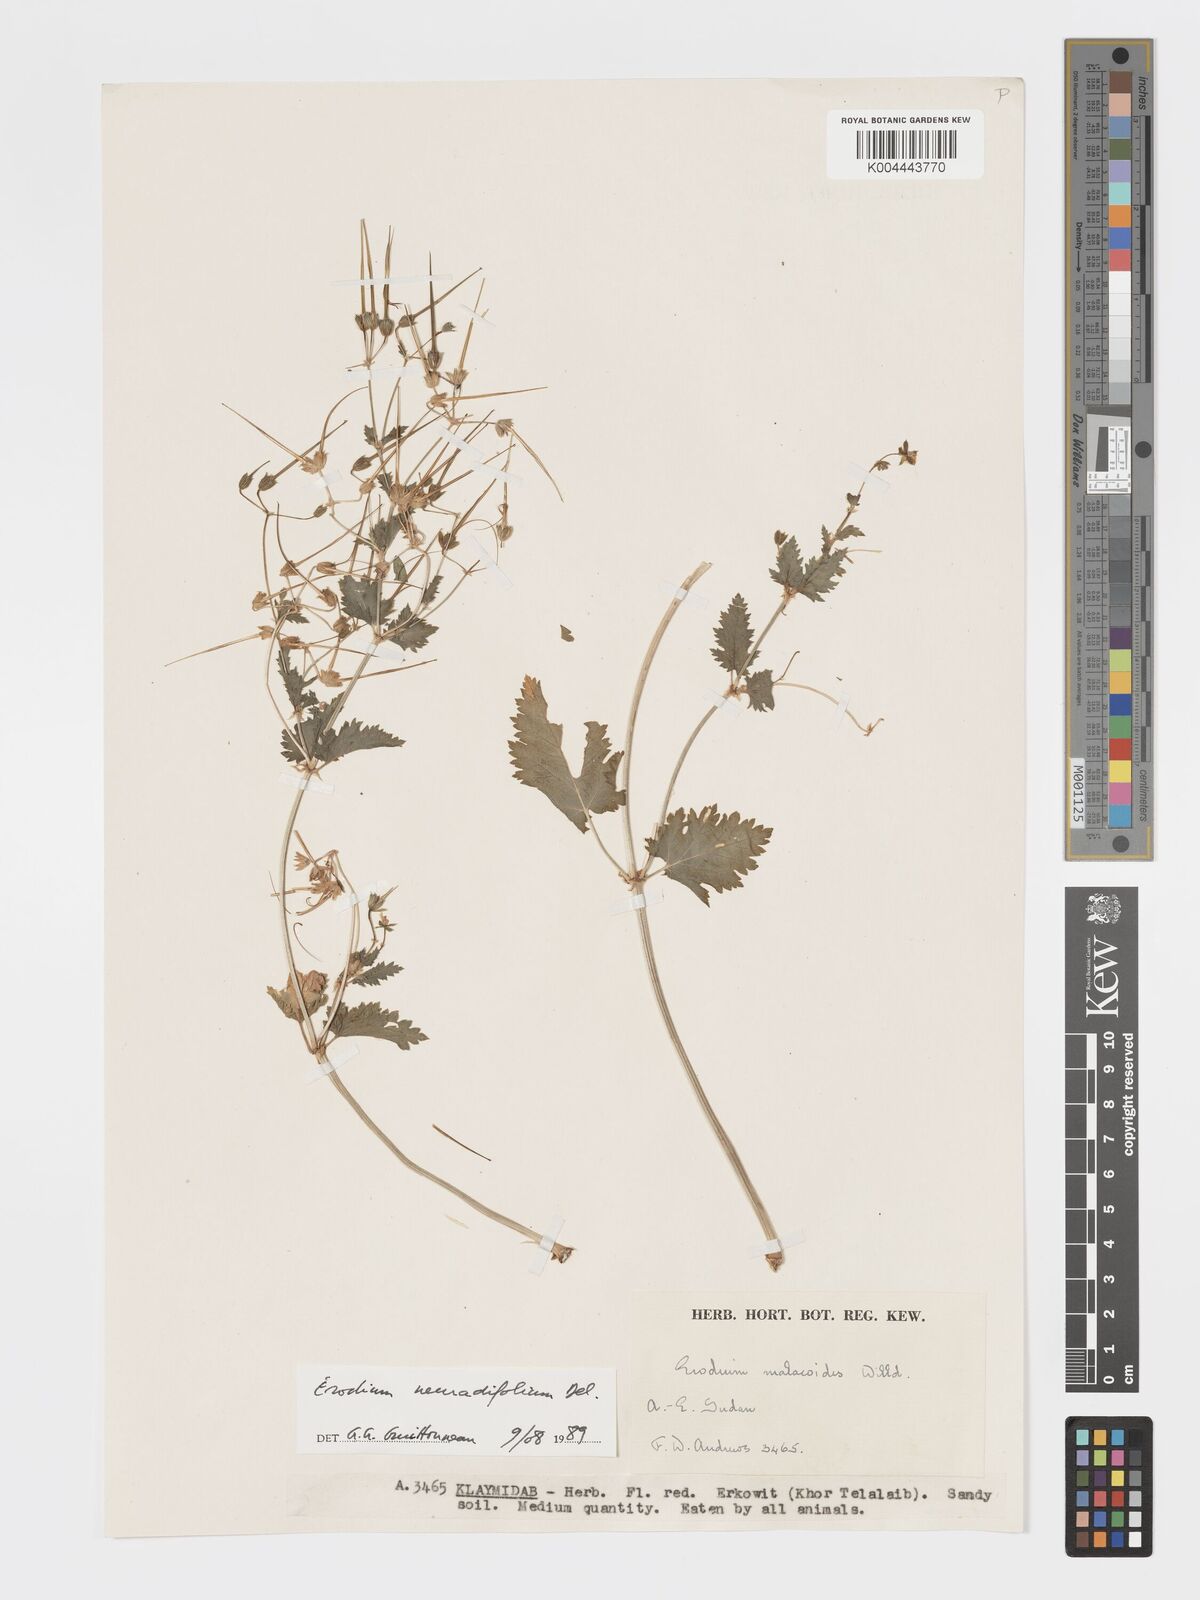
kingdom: Plantae
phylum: Tracheophyta
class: Magnoliopsida
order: Geraniales
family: Geraniaceae
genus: Erodium
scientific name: Erodium neuradifolium
